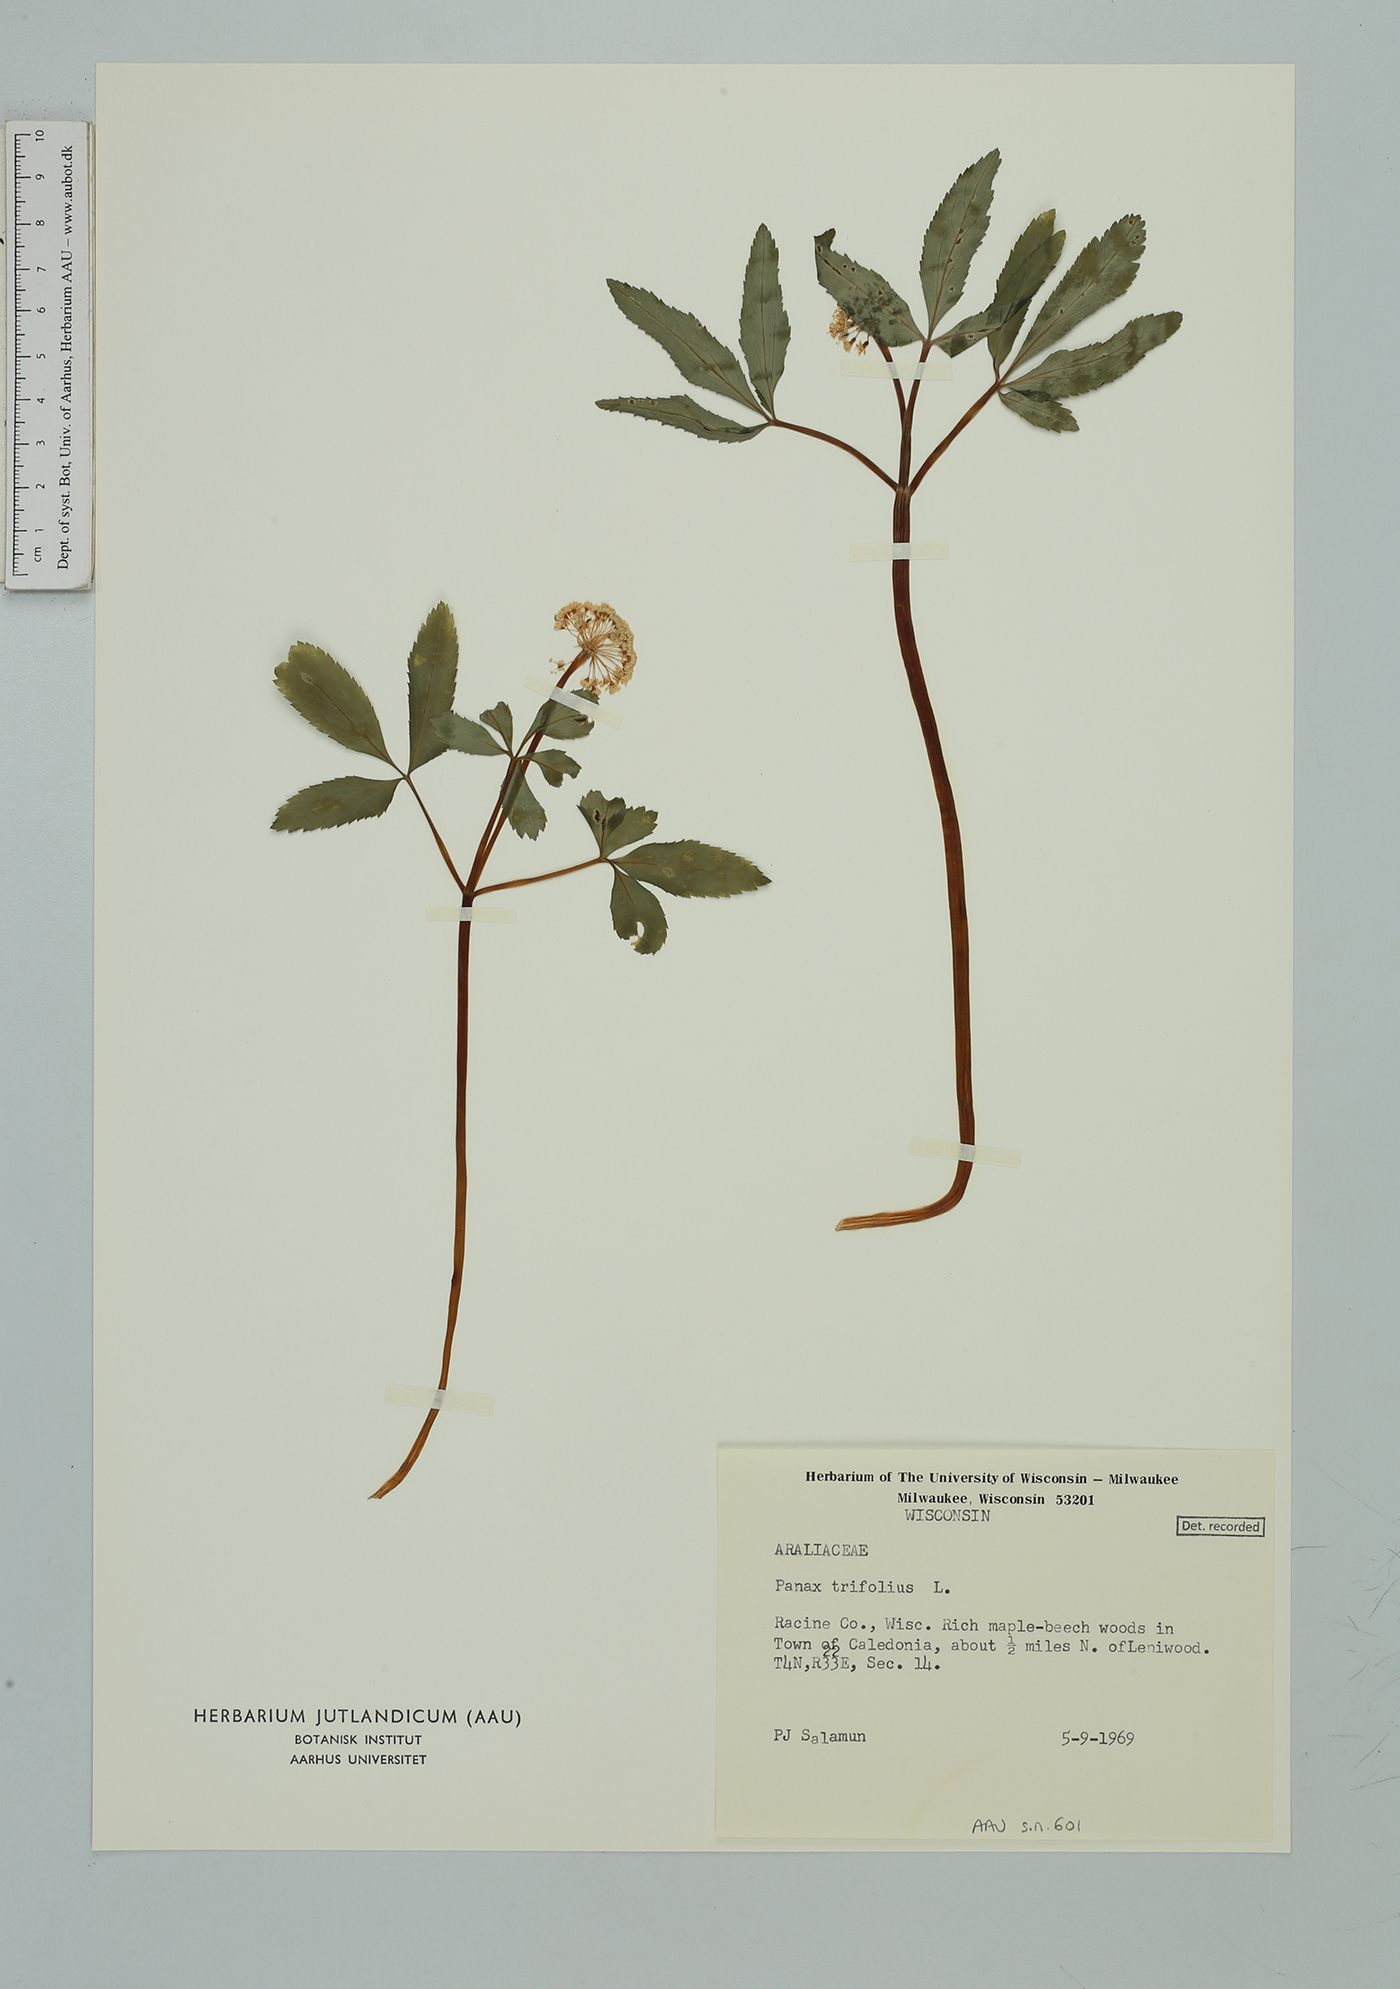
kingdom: Plantae
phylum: Tracheophyta
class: Magnoliopsida
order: Apiales
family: Araliaceae
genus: Panax
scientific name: Panax trifolius
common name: Dwarf ginseng
